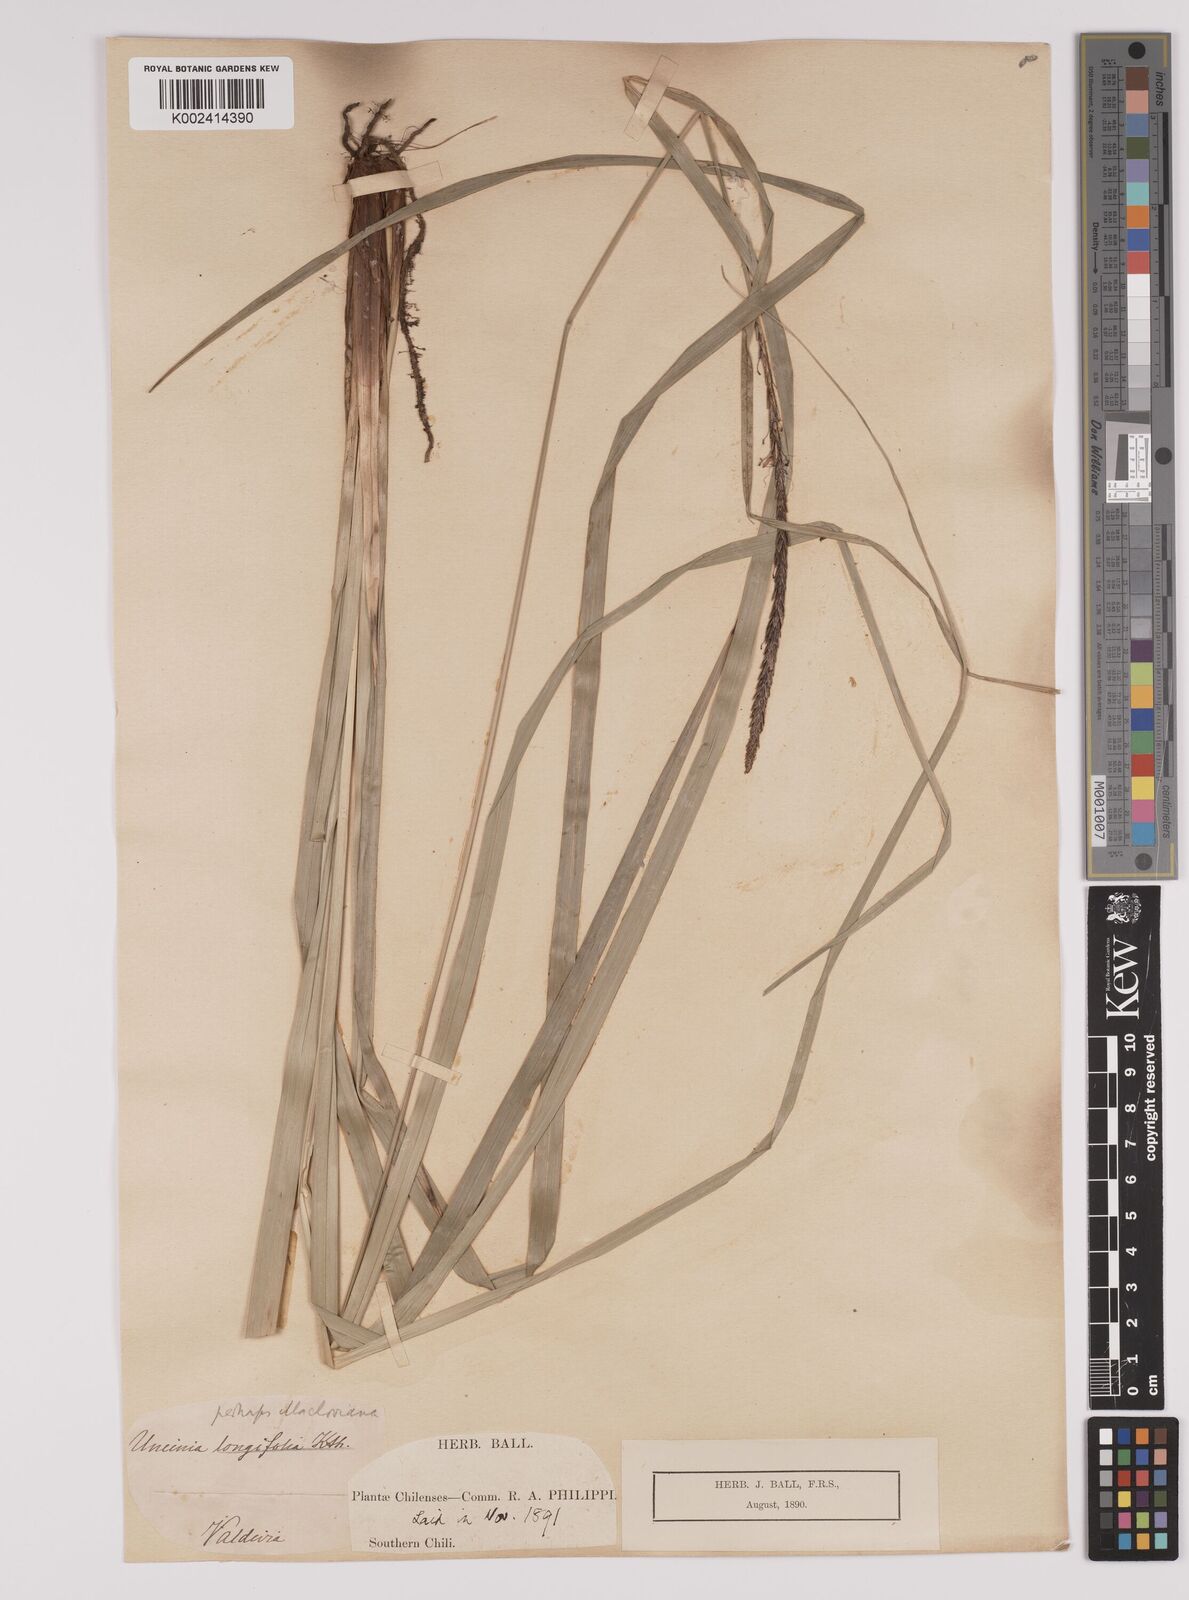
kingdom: Plantae
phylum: Tracheophyta
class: Liliopsida
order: Poales
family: Cyperaceae
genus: Carex
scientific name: Carex quinquin
